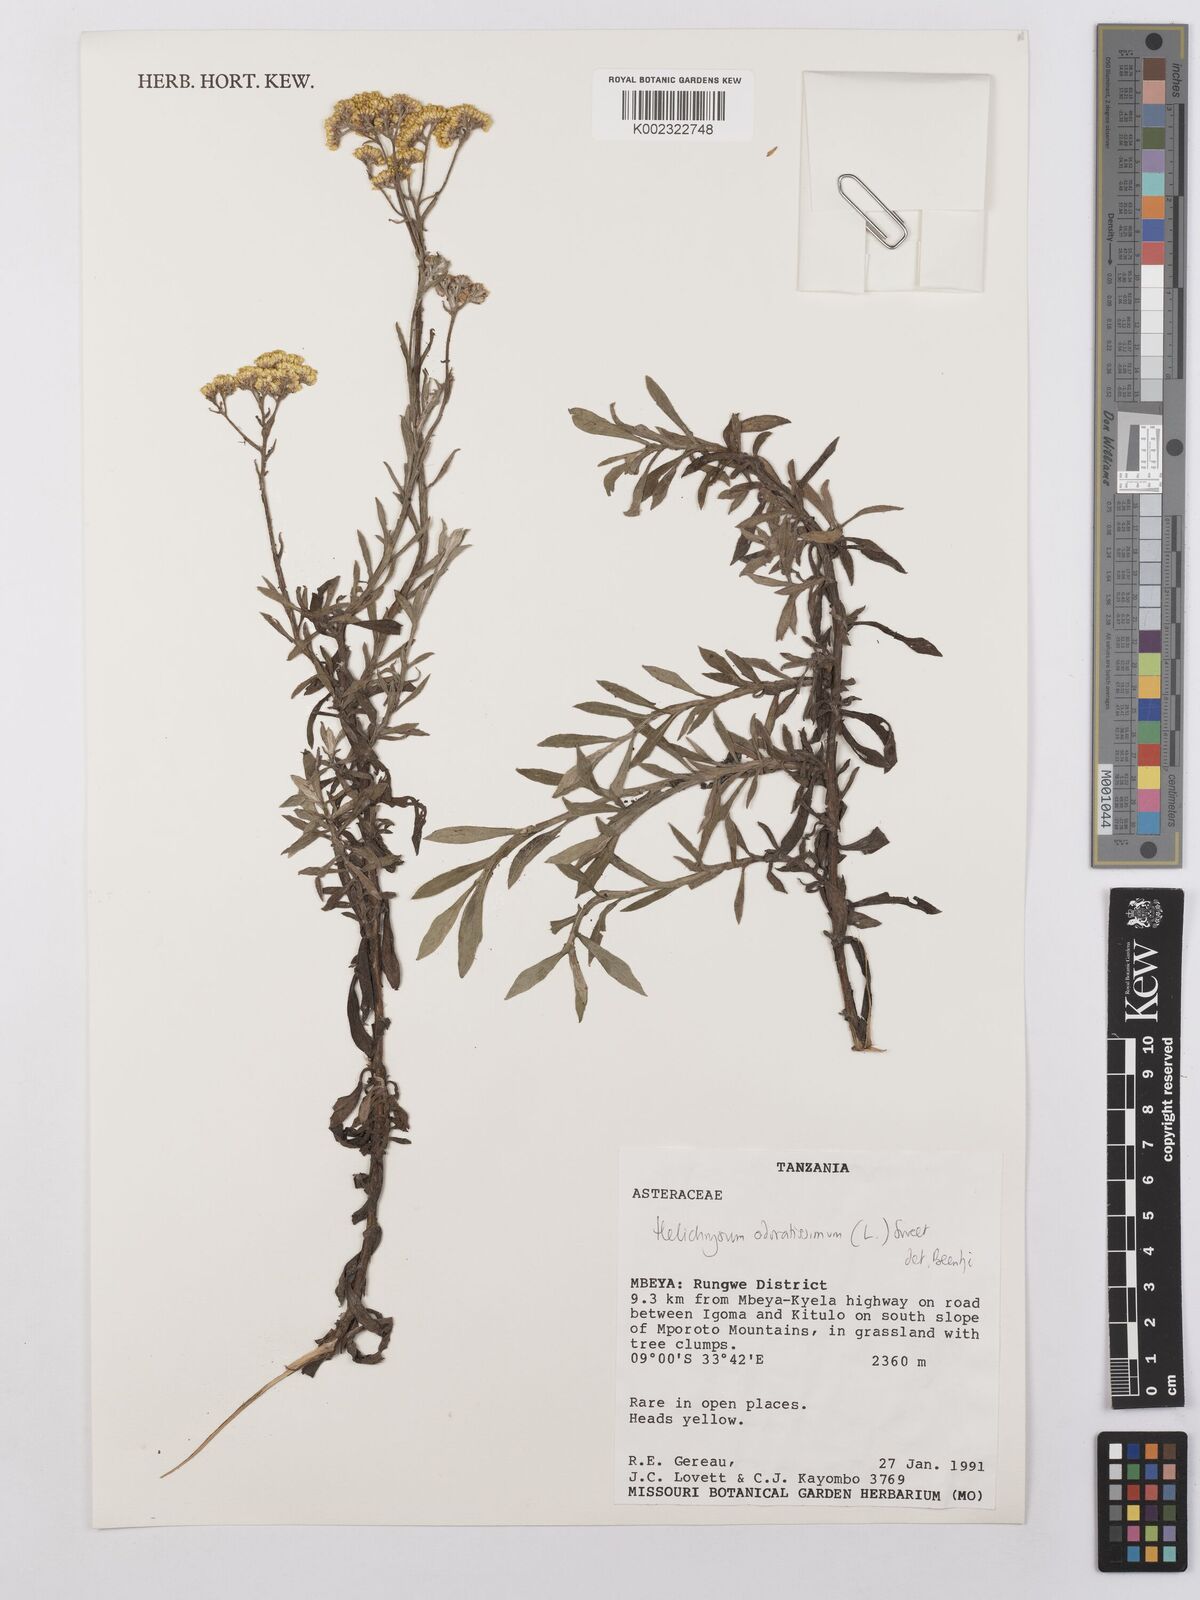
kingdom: Plantae
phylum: Tracheophyta
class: Magnoliopsida
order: Asterales
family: Asteraceae
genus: Helichrysum
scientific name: Helichrysum odoratissimum
